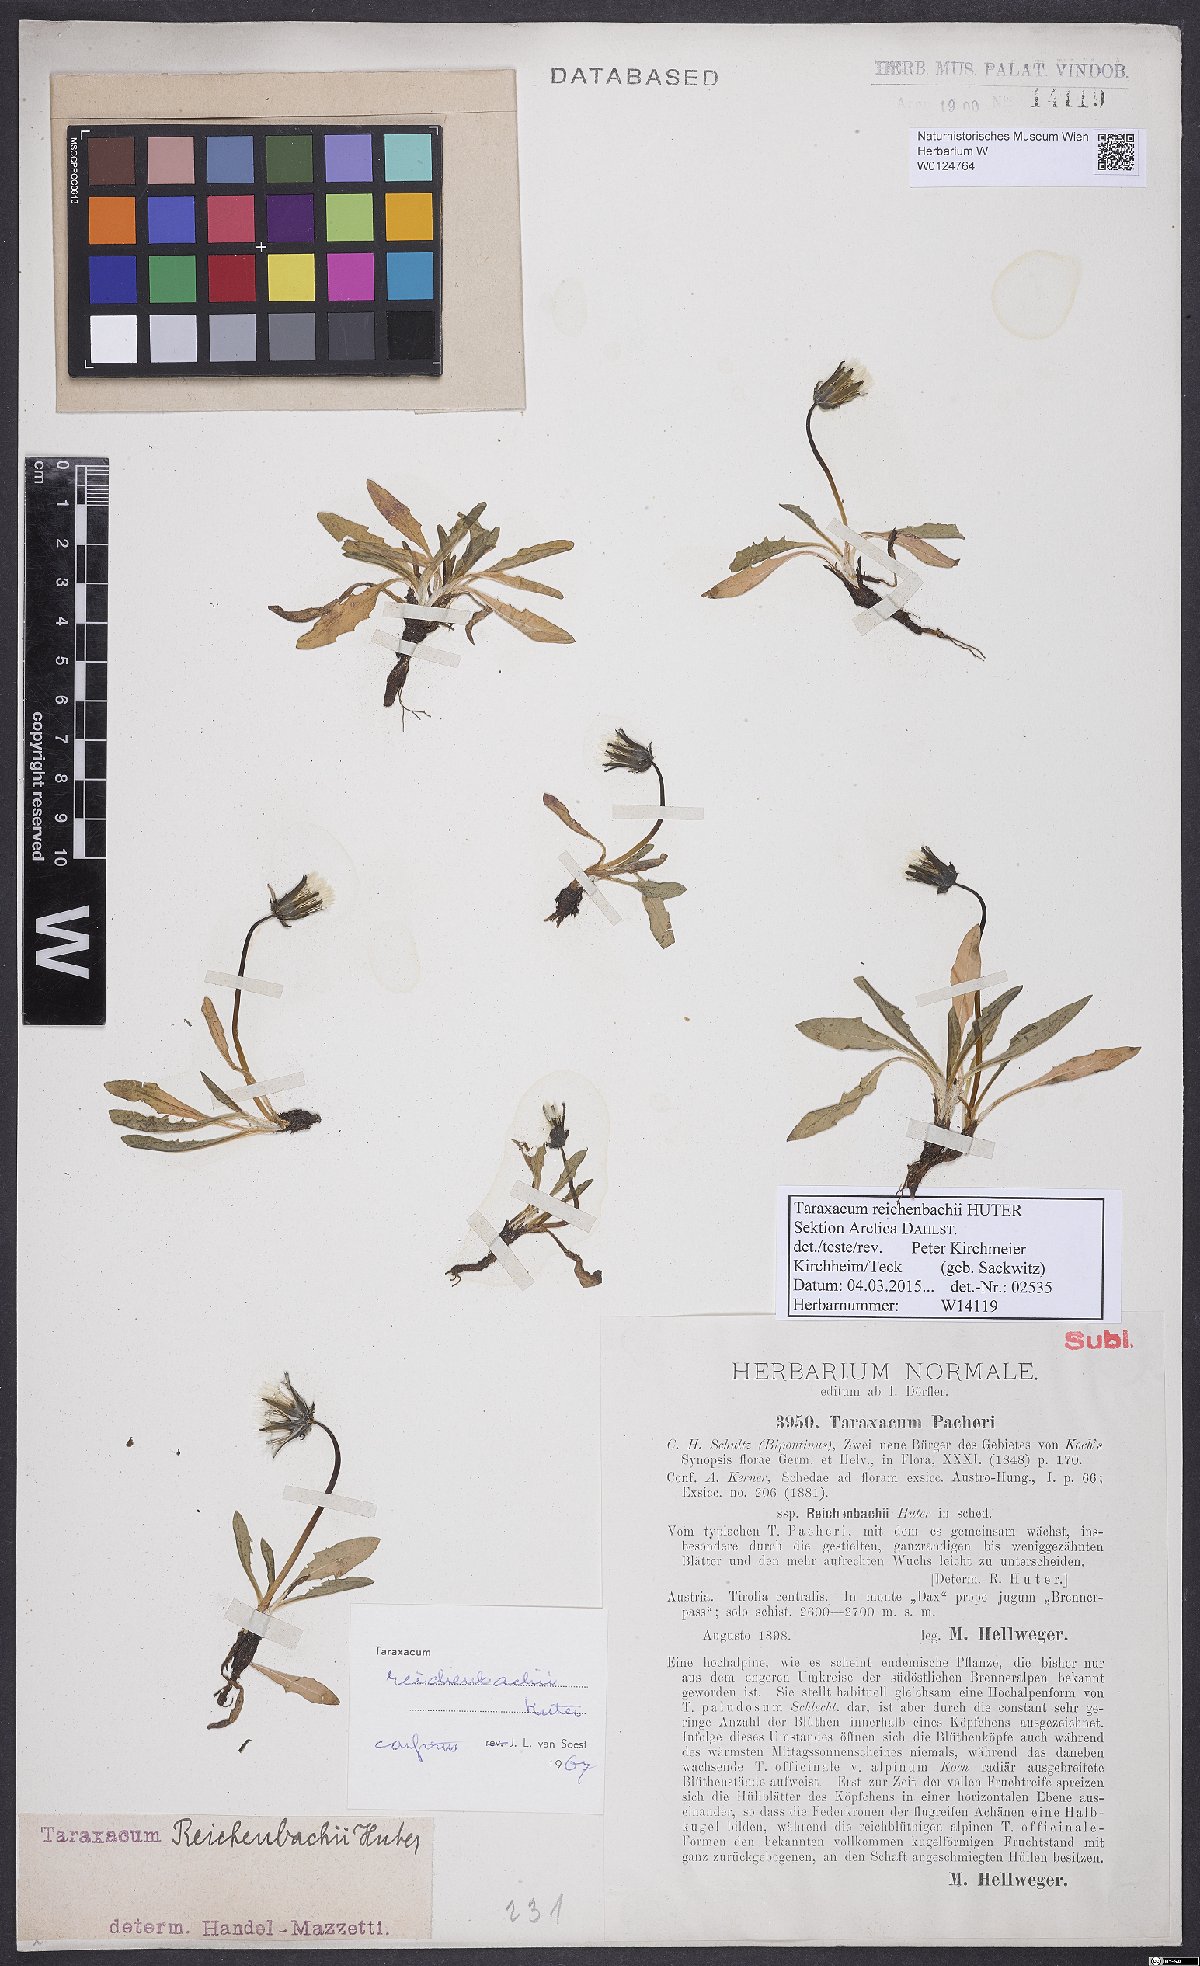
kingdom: Plantae
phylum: Tracheophyta
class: Magnoliopsida
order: Asterales
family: Asteraceae
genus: Taraxacum
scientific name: Taraxacum reichenbachii
